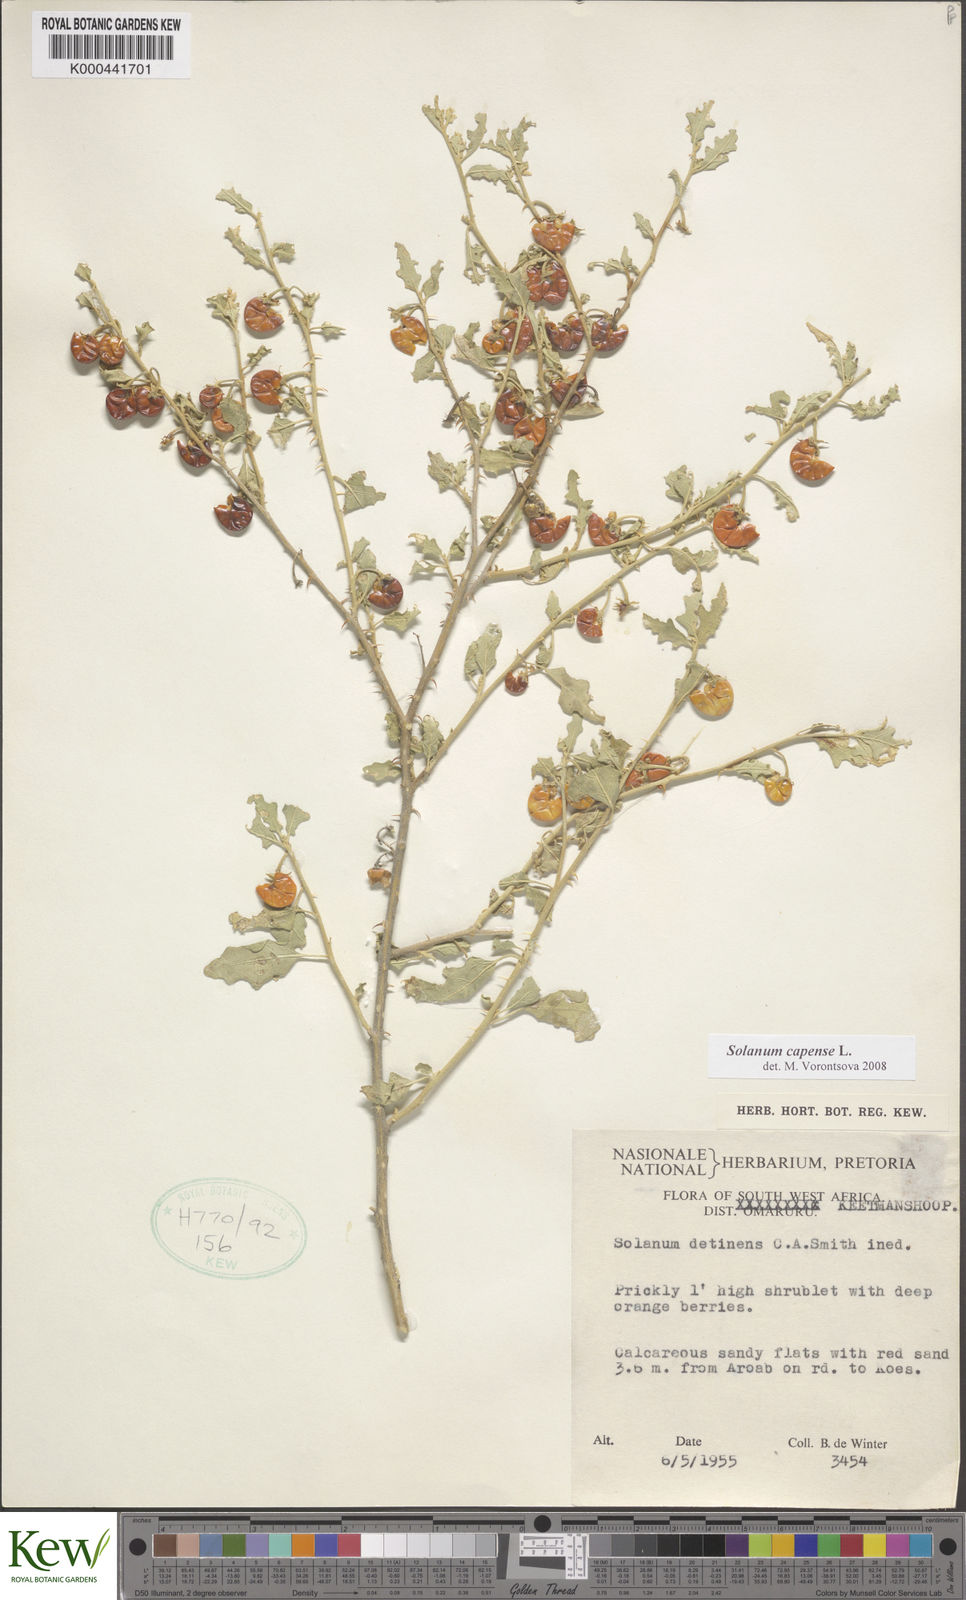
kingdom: Plantae
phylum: Tracheophyta
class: Magnoliopsida
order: Solanales
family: Solanaceae
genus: Solanum
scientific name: Solanum capense
